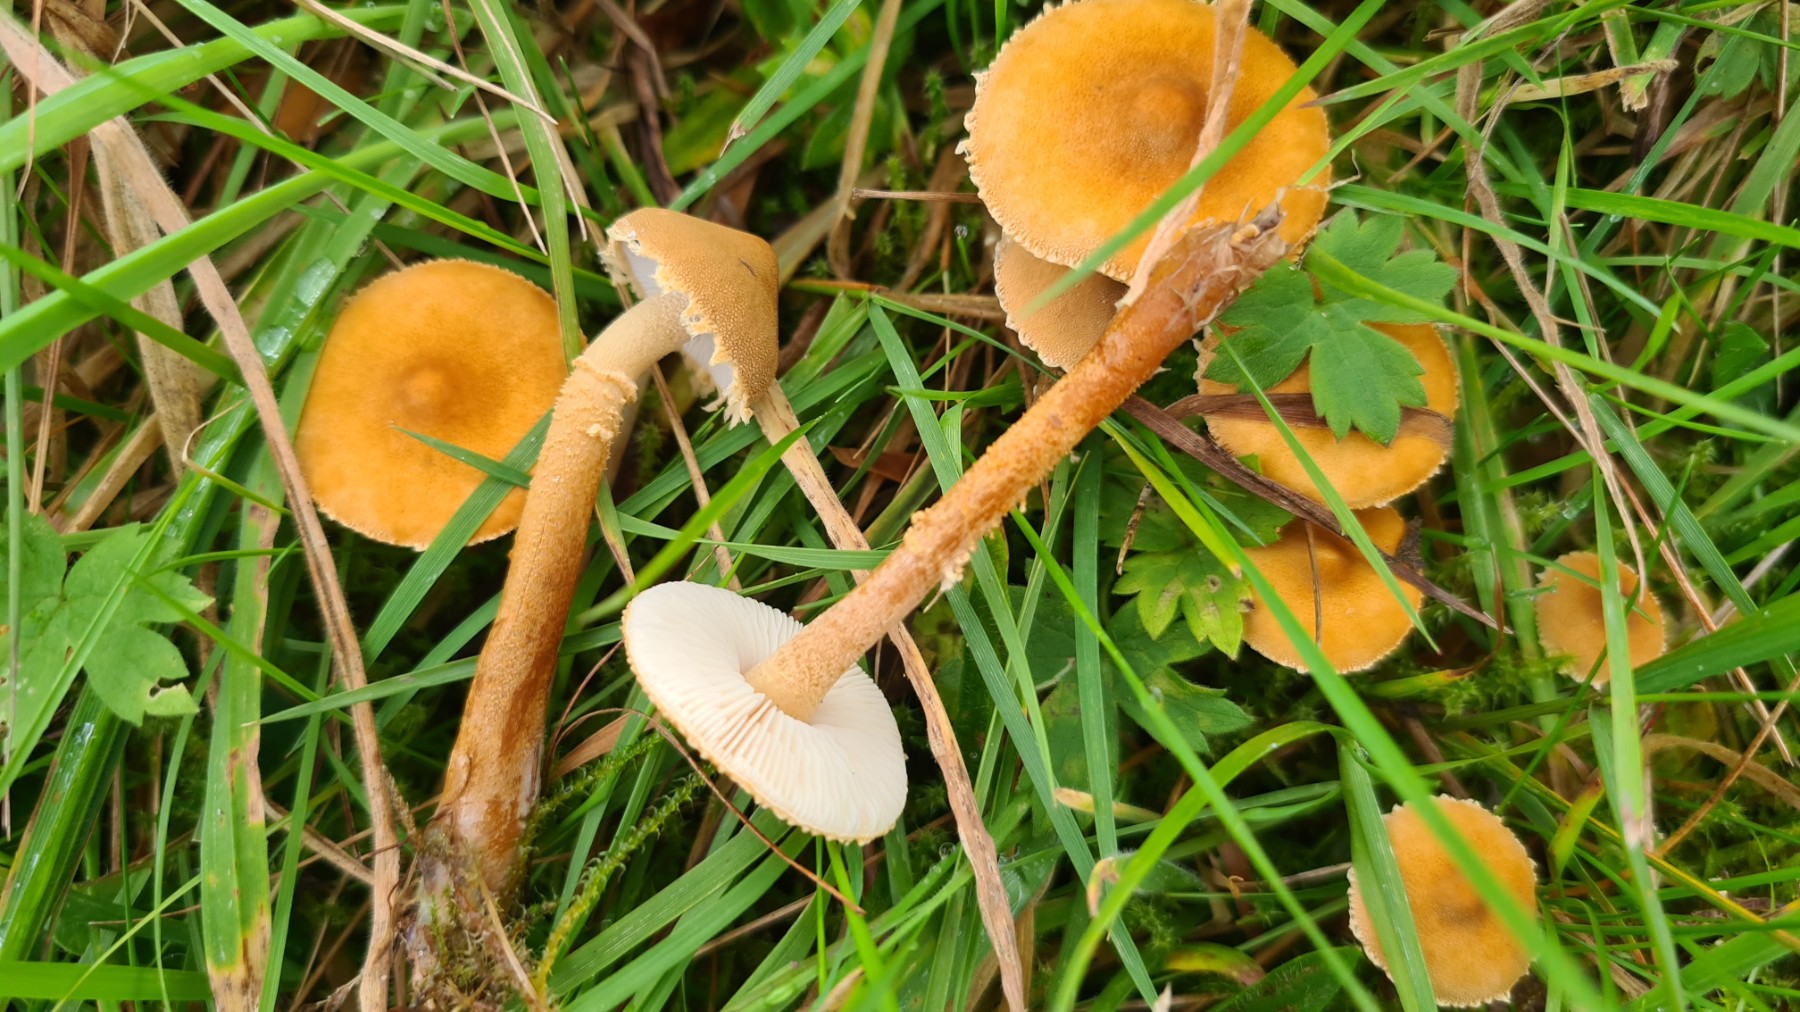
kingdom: Fungi
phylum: Basidiomycota
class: Agaricomycetes
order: Agaricales
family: Tricholomataceae
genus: Cystoderma
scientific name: Cystoderma amianthinum
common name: okkergul grynhat
